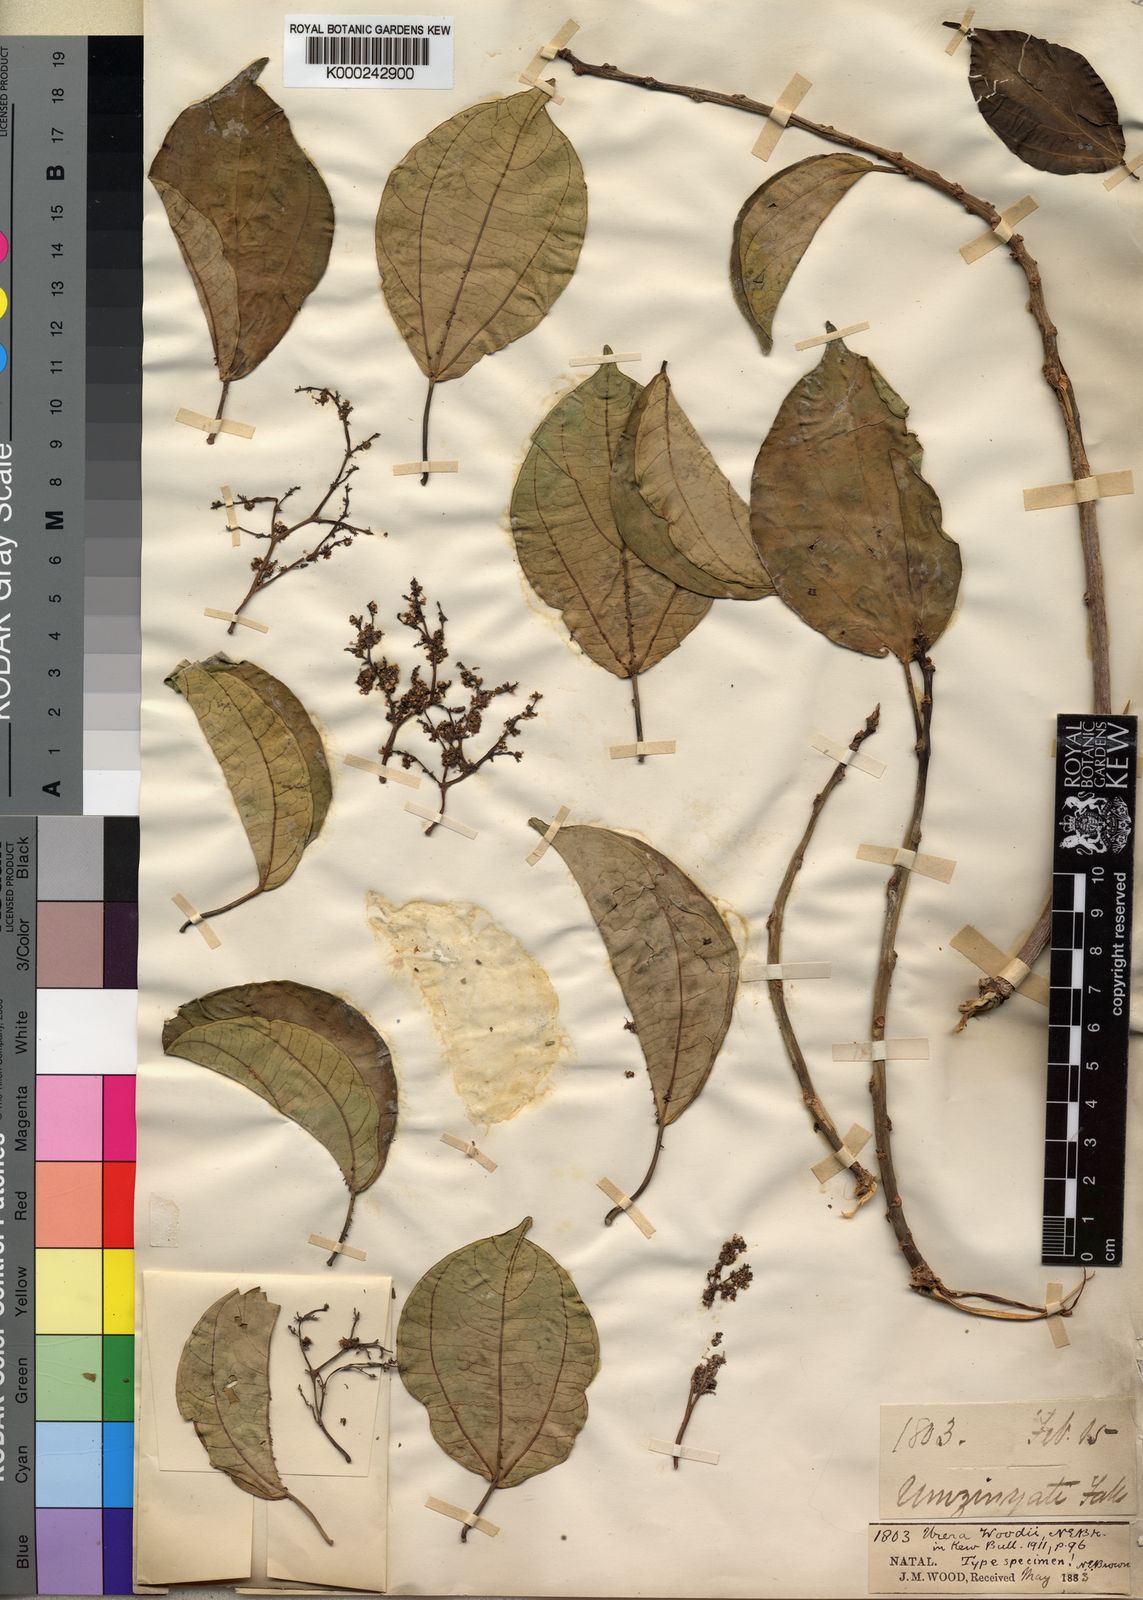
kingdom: Plantae
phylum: Tracheophyta
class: Magnoliopsida
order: Rosales
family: Urticaceae
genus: Scepocarpus
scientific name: Scepocarpus
